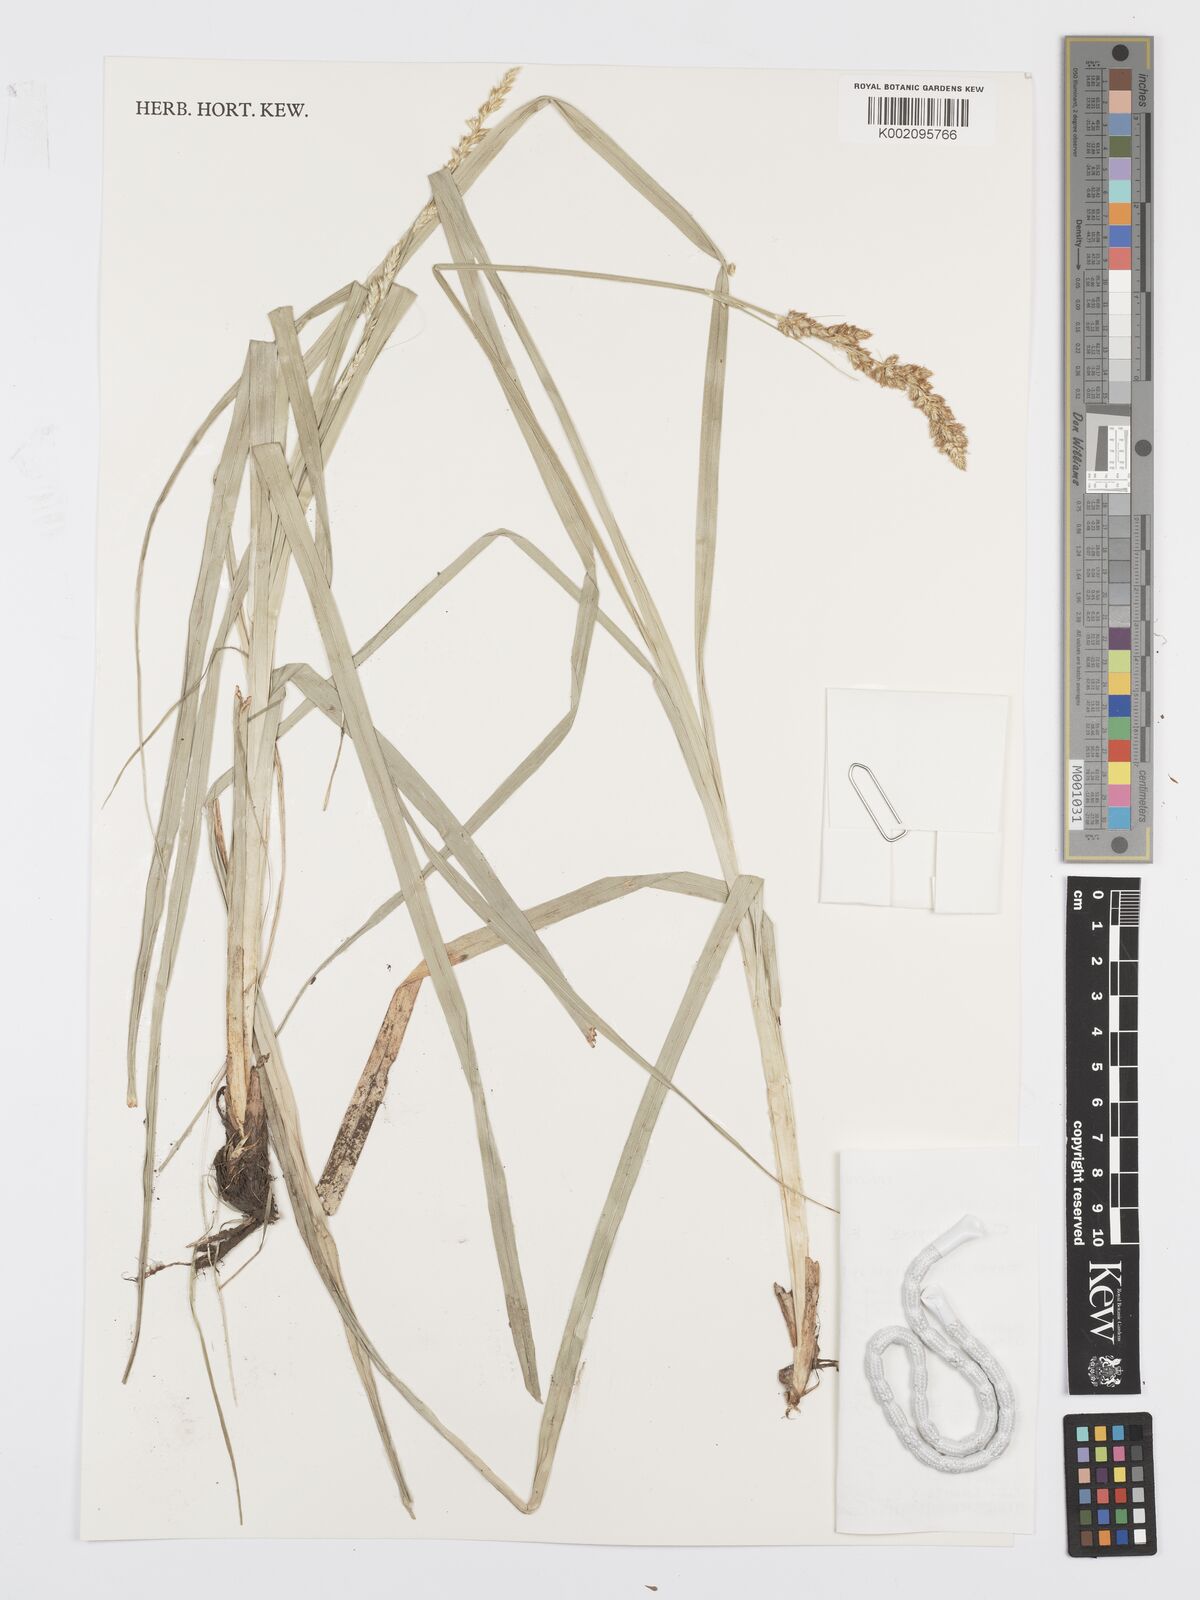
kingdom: Plantae
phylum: Tracheophyta
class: Liliopsida
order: Poales
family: Cyperaceae
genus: Carex
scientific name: Carex lycurus
